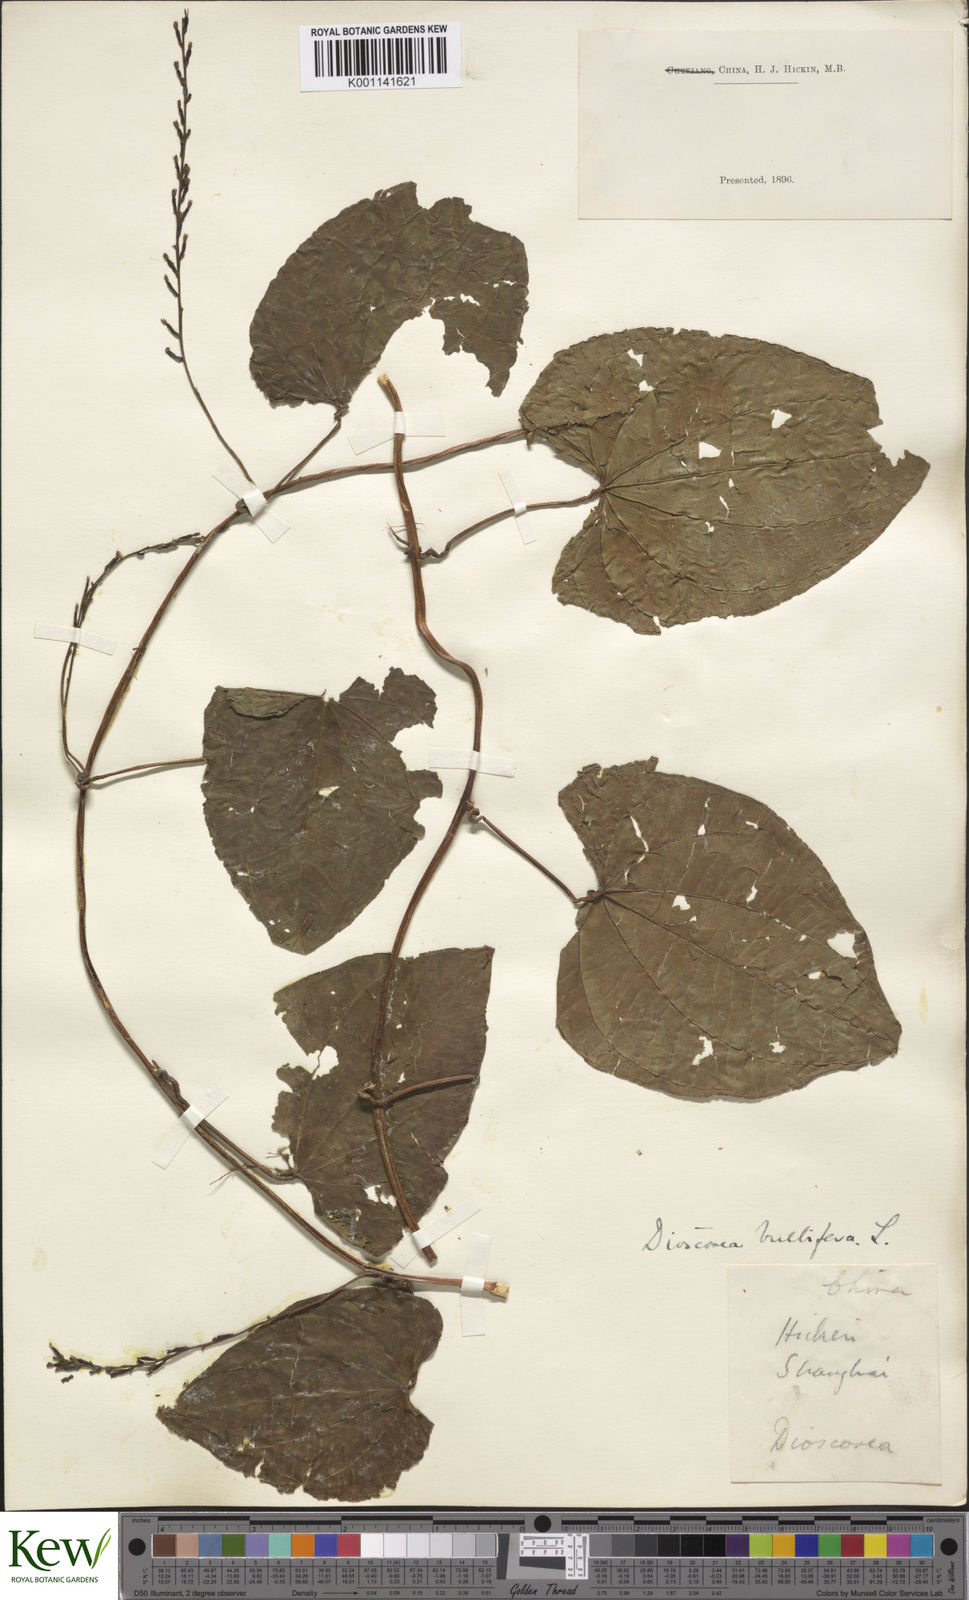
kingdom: Plantae
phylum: Tracheophyta
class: Liliopsida
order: Dioscoreales
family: Dioscoreaceae
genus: Dioscorea
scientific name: Dioscorea bulbifera
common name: Air yam
